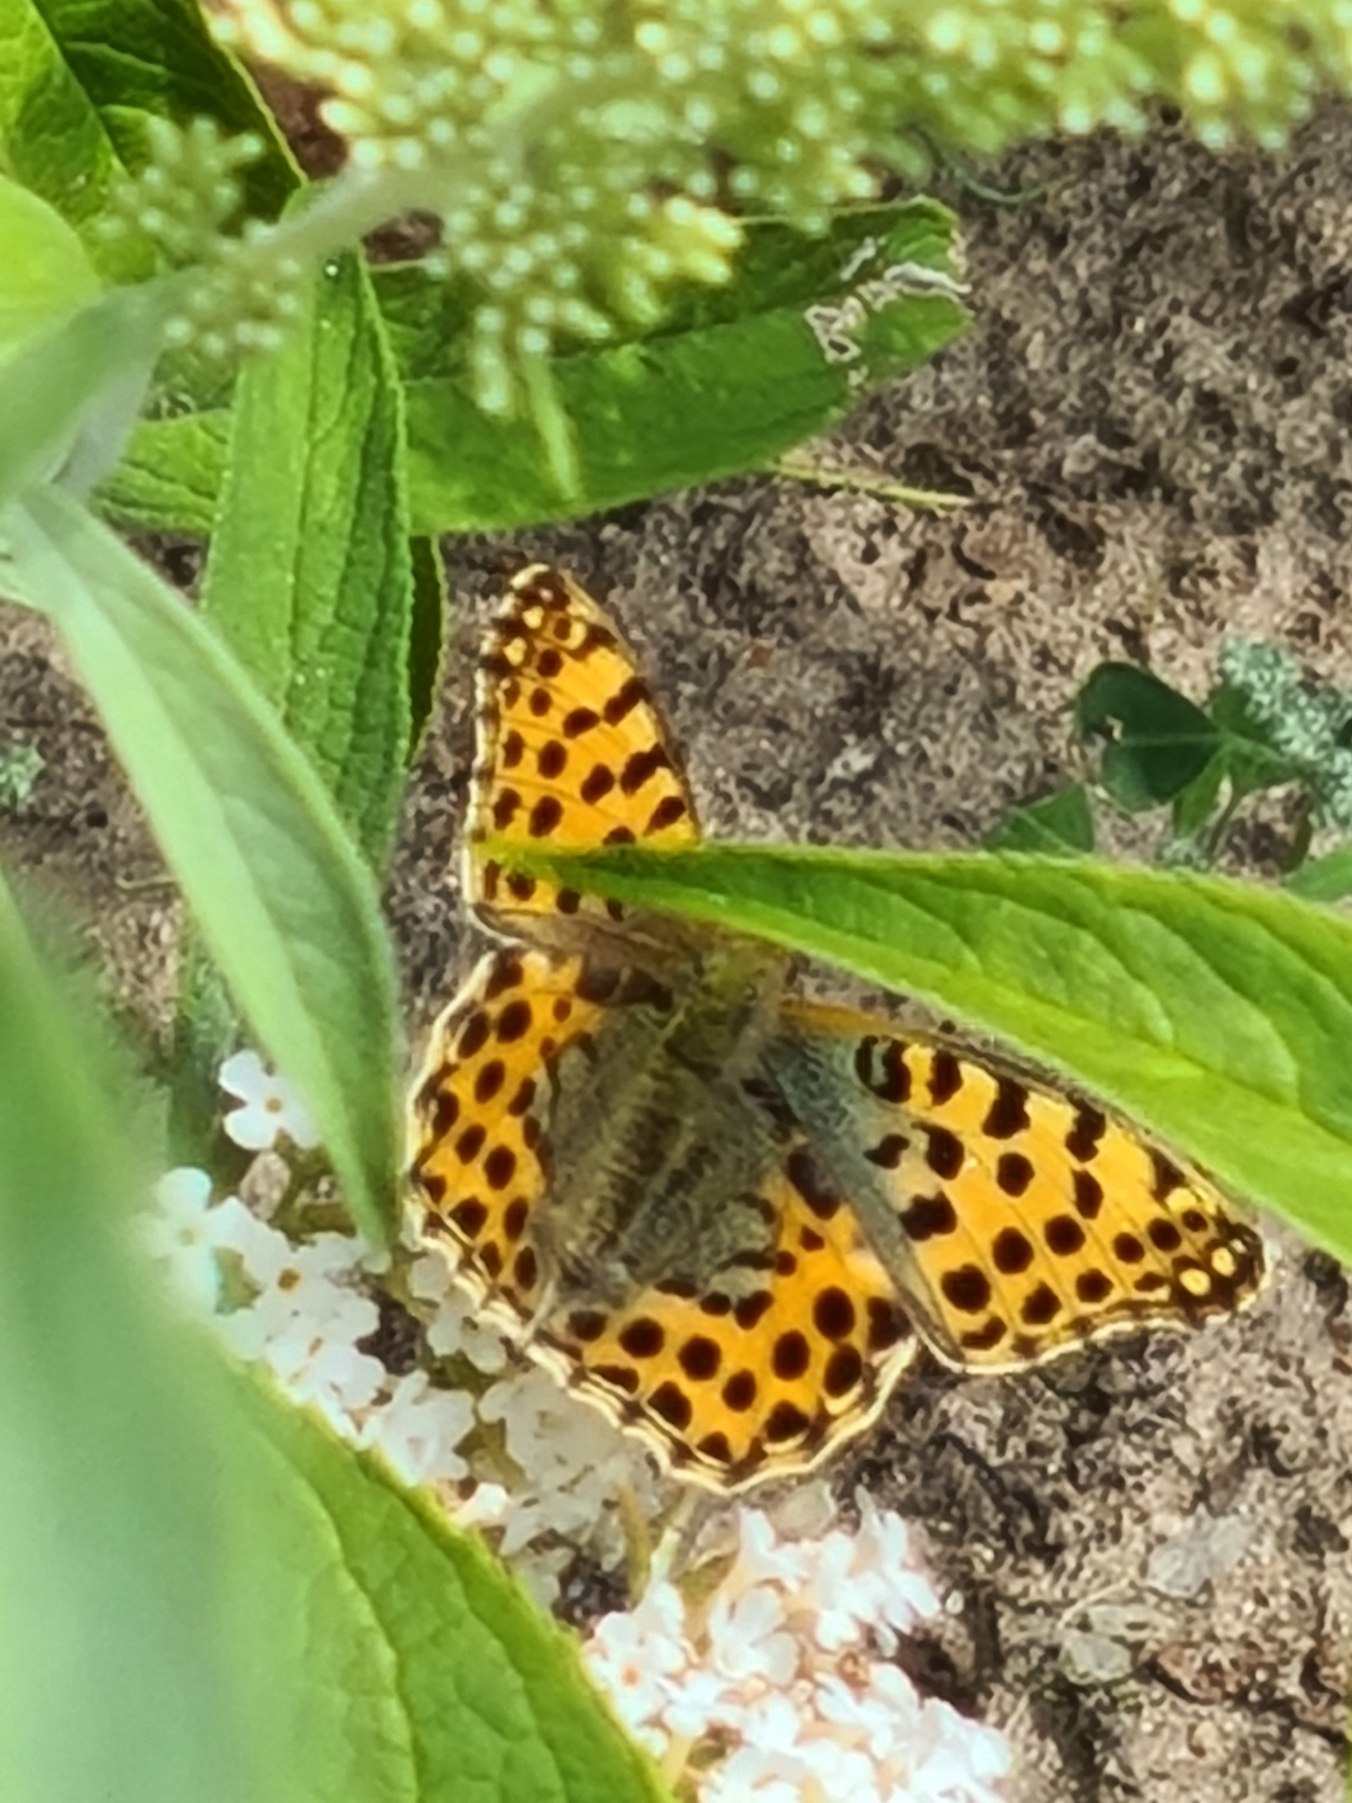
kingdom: Animalia
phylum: Arthropoda
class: Insecta
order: Lepidoptera
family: Nymphalidae
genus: Issoria
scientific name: Issoria lathonia
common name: Storplettet perlemorsommerfugl
